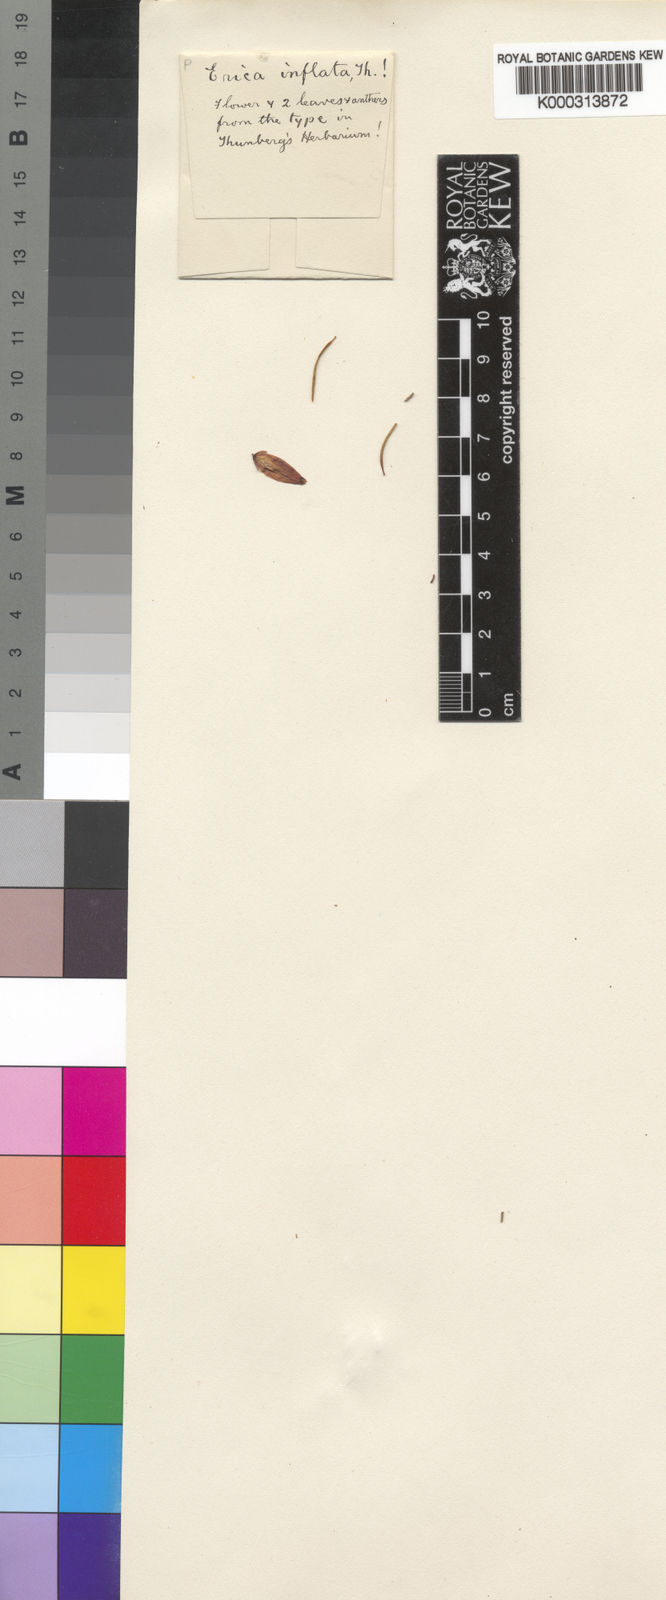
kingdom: Plantae
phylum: Tracheophyta
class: Magnoliopsida
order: Ericales
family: Ericaceae
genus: Erica
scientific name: Erica inflata
